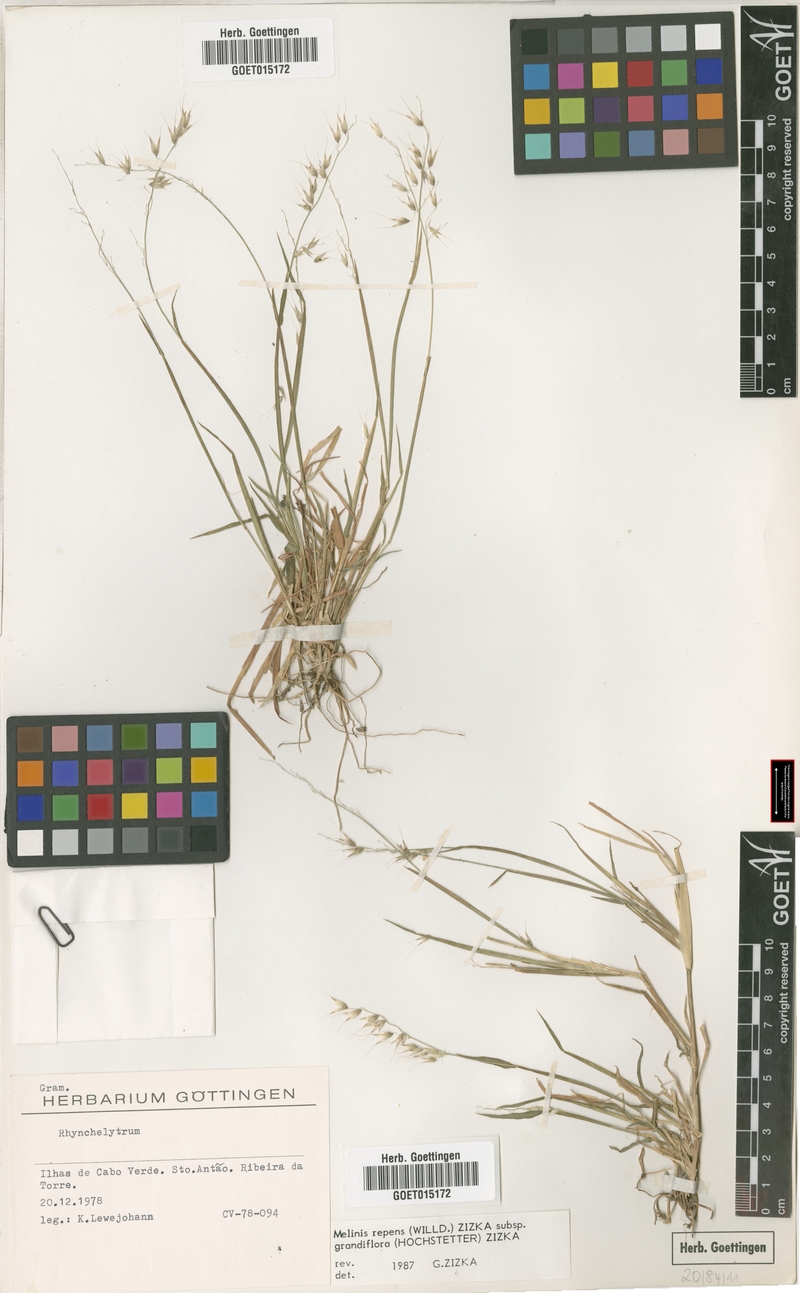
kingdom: Plantae
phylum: Tracheophyta
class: Liliopsida
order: Poales
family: Poaceae
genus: Melinis
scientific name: Melinis repens
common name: Rose natal grass
